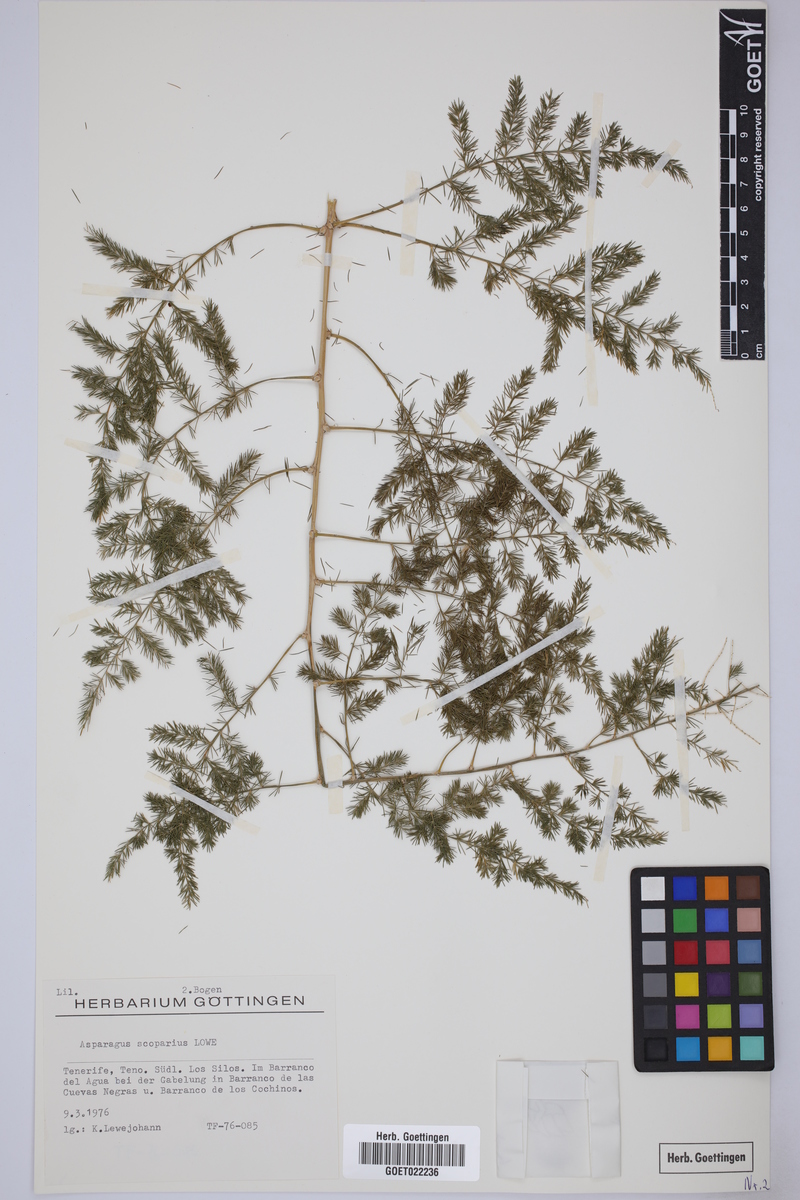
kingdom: Plantae
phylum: Tracheophyta
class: Liliopsida
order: Asparagales
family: Asparagaceae
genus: Asparagus
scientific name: Asparagus scoparius
